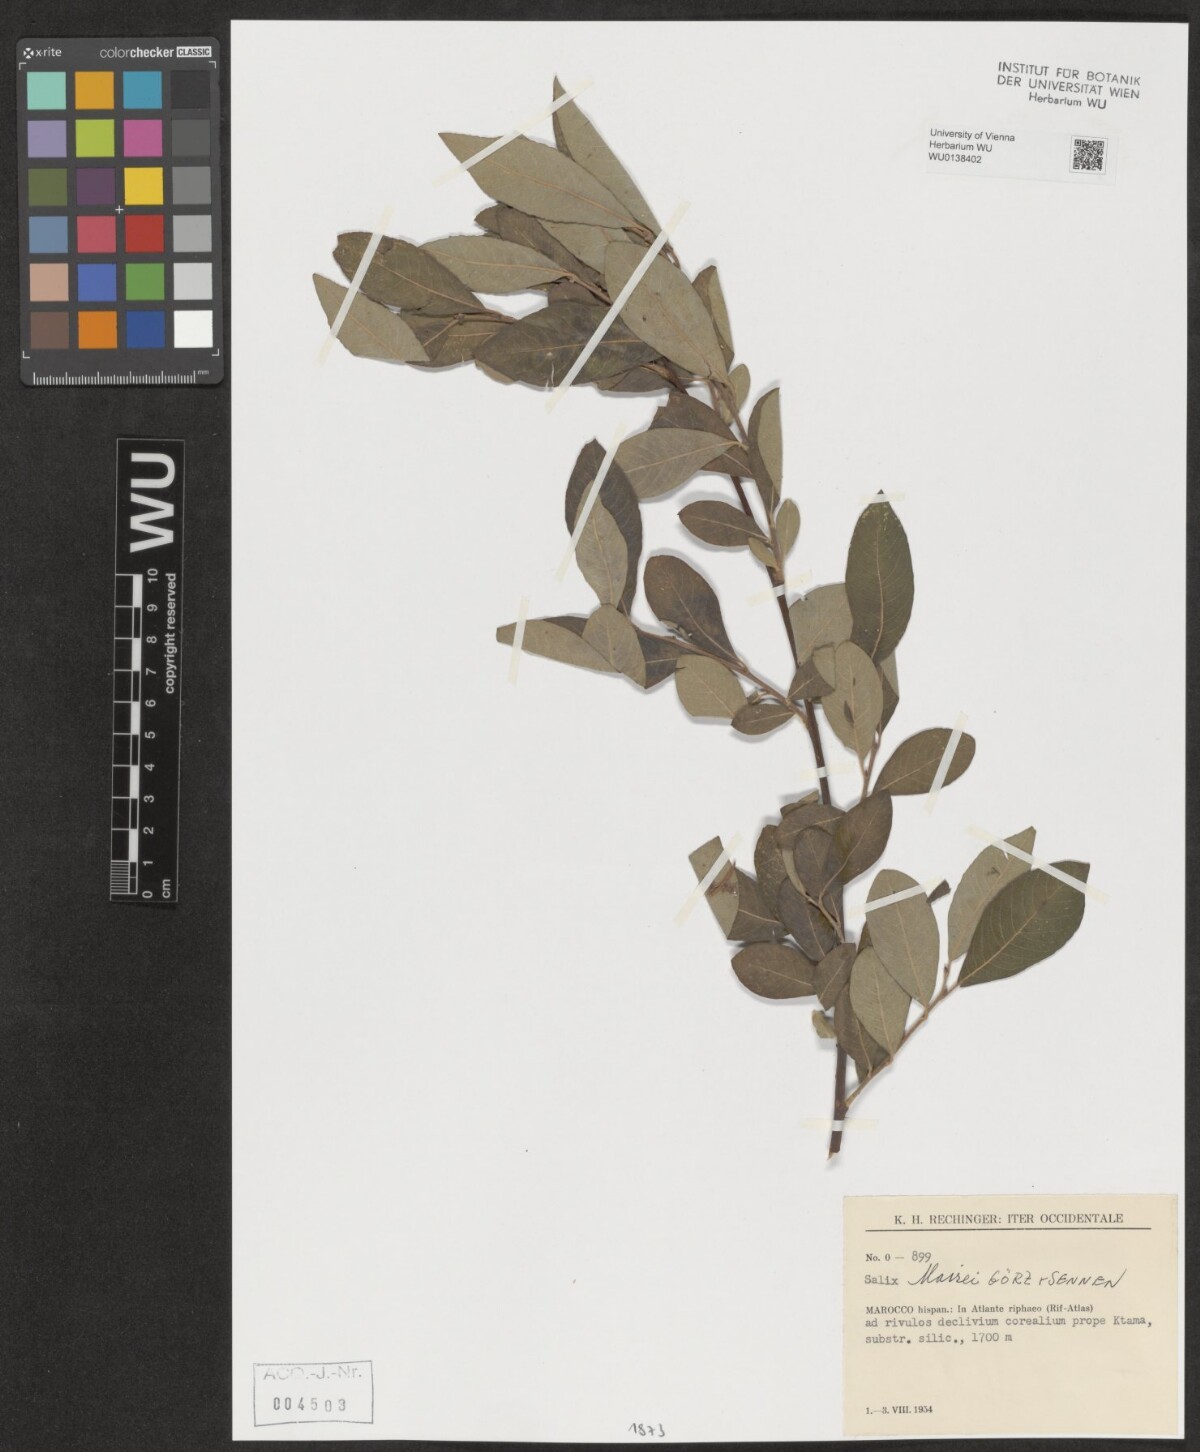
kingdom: Plantae
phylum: Tracheophyta
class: Magnoliopsida
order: Malpighiales
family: Salicaceae
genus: Salix
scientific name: Salix mairei
